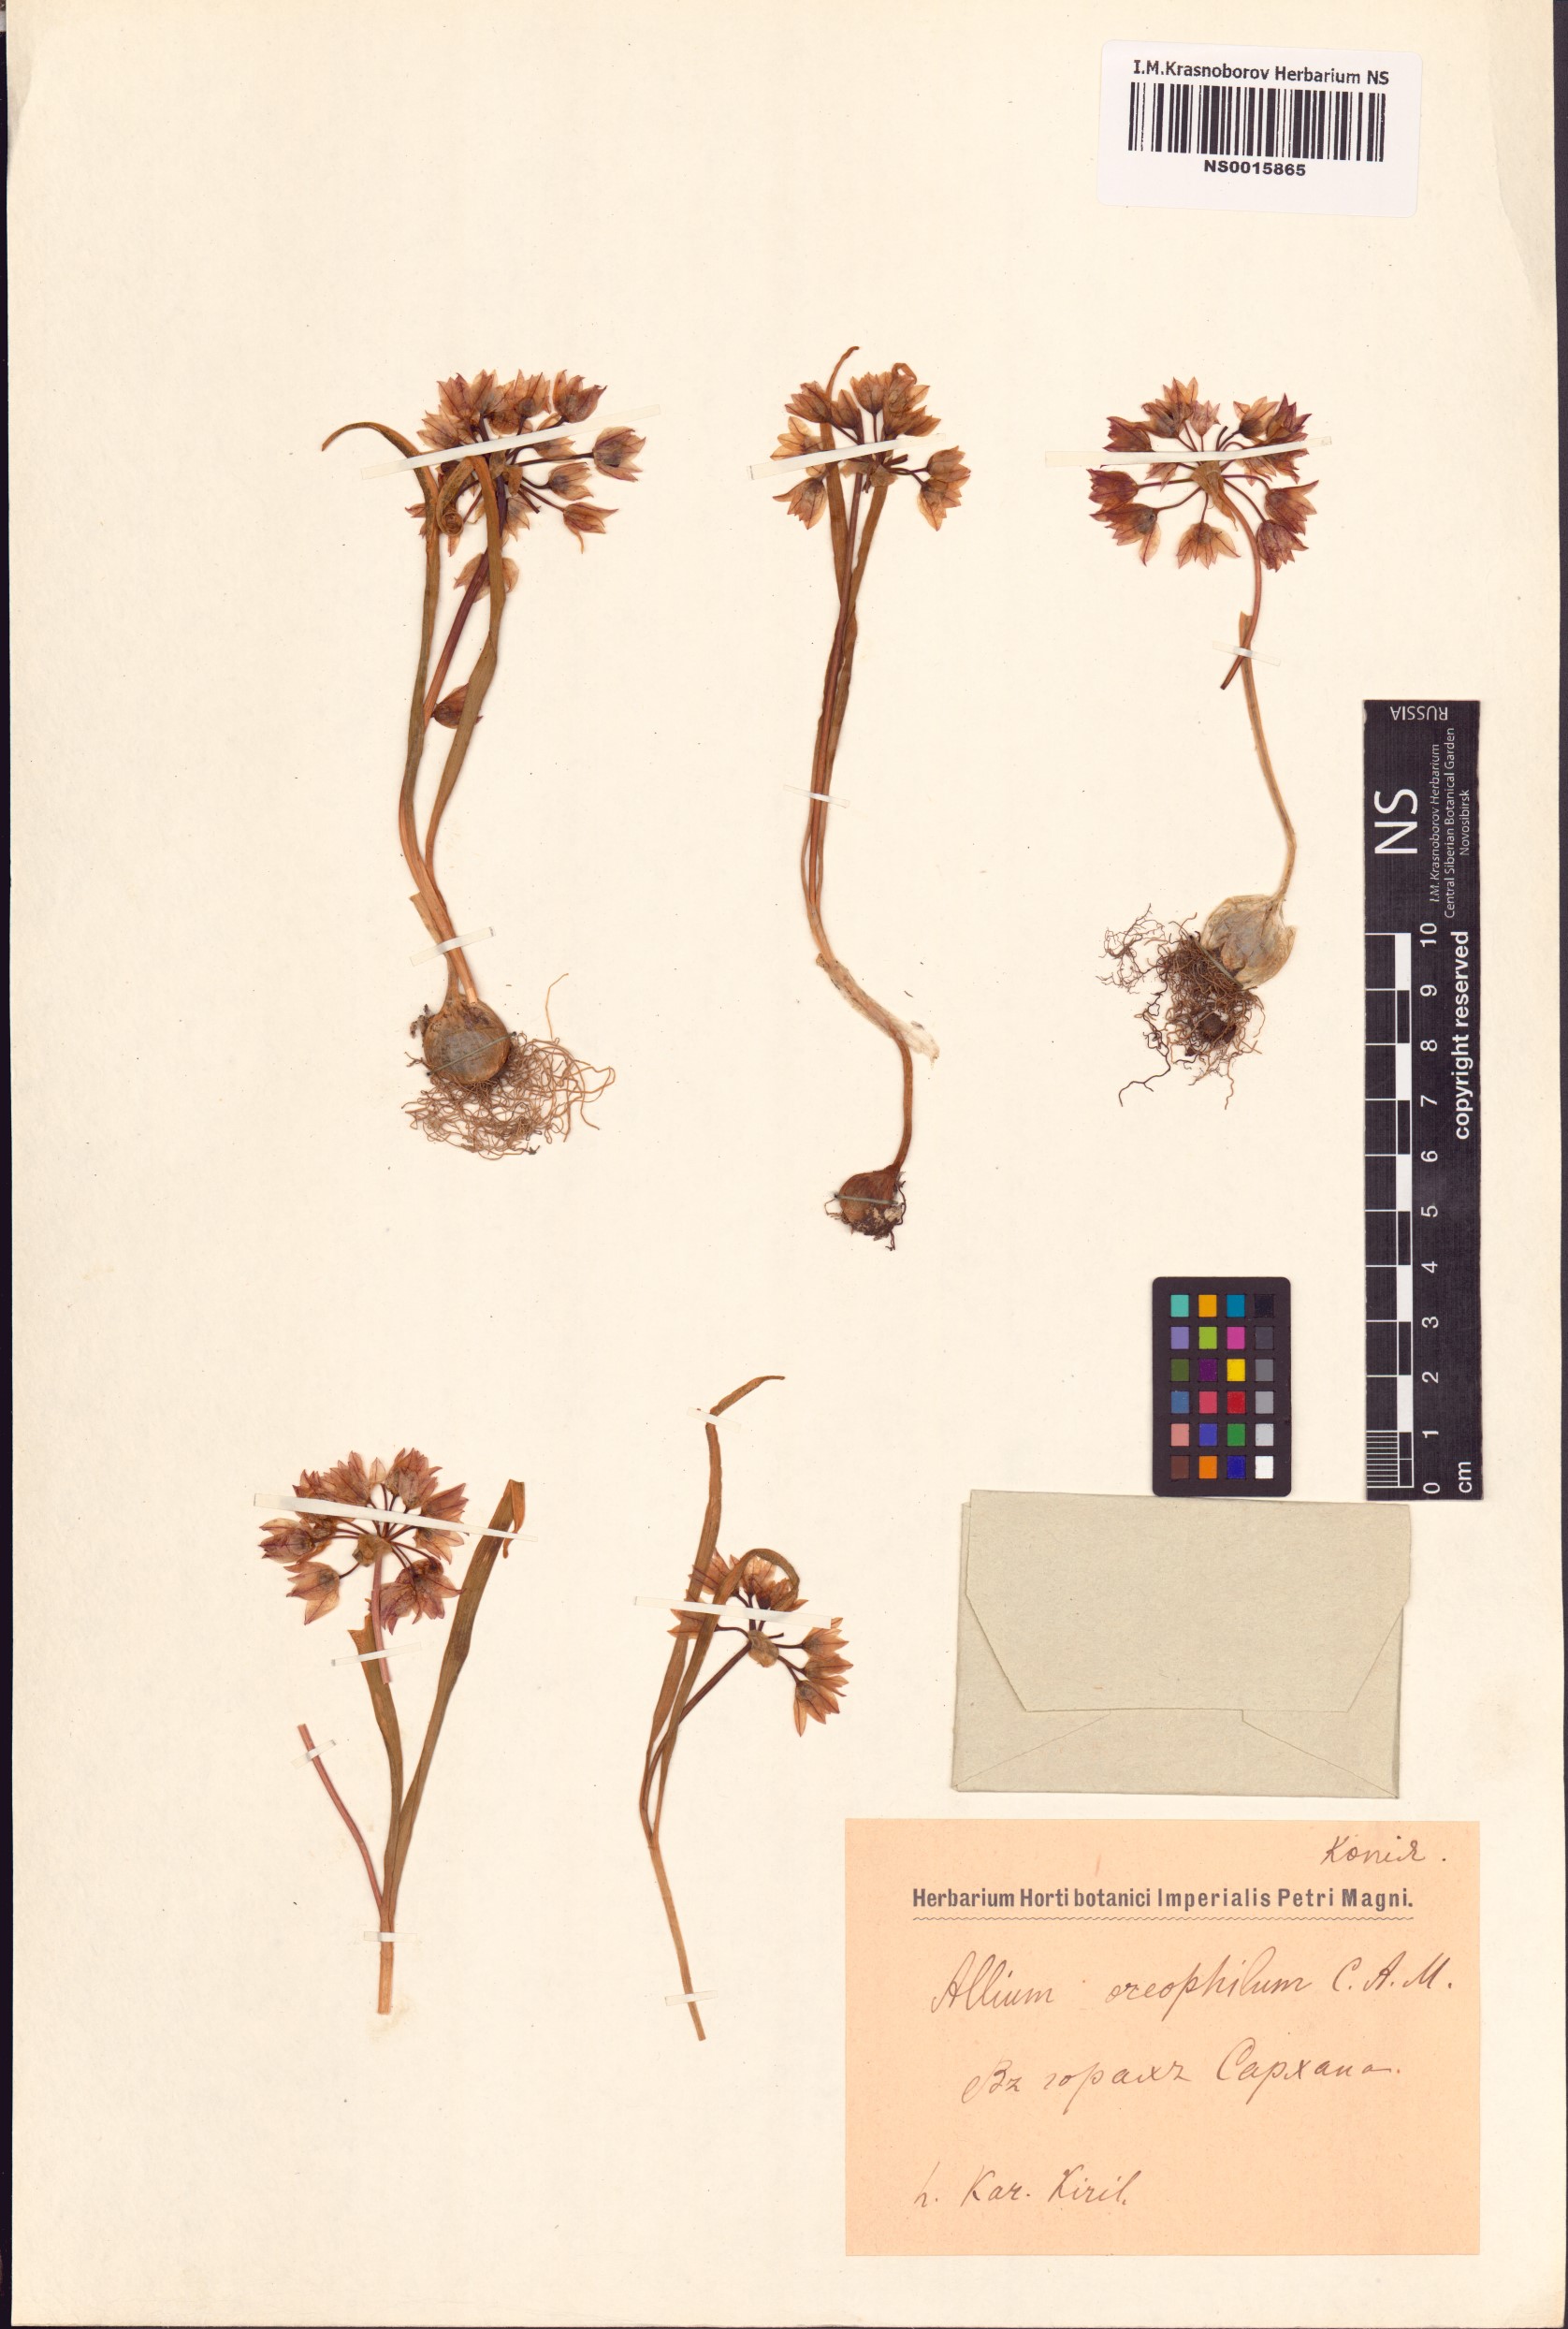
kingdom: Plantae
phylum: Tracheophyta
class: Liliopsida
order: Asparagales
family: Amaryllidaceae
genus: Allium
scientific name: Allium oreophilum
